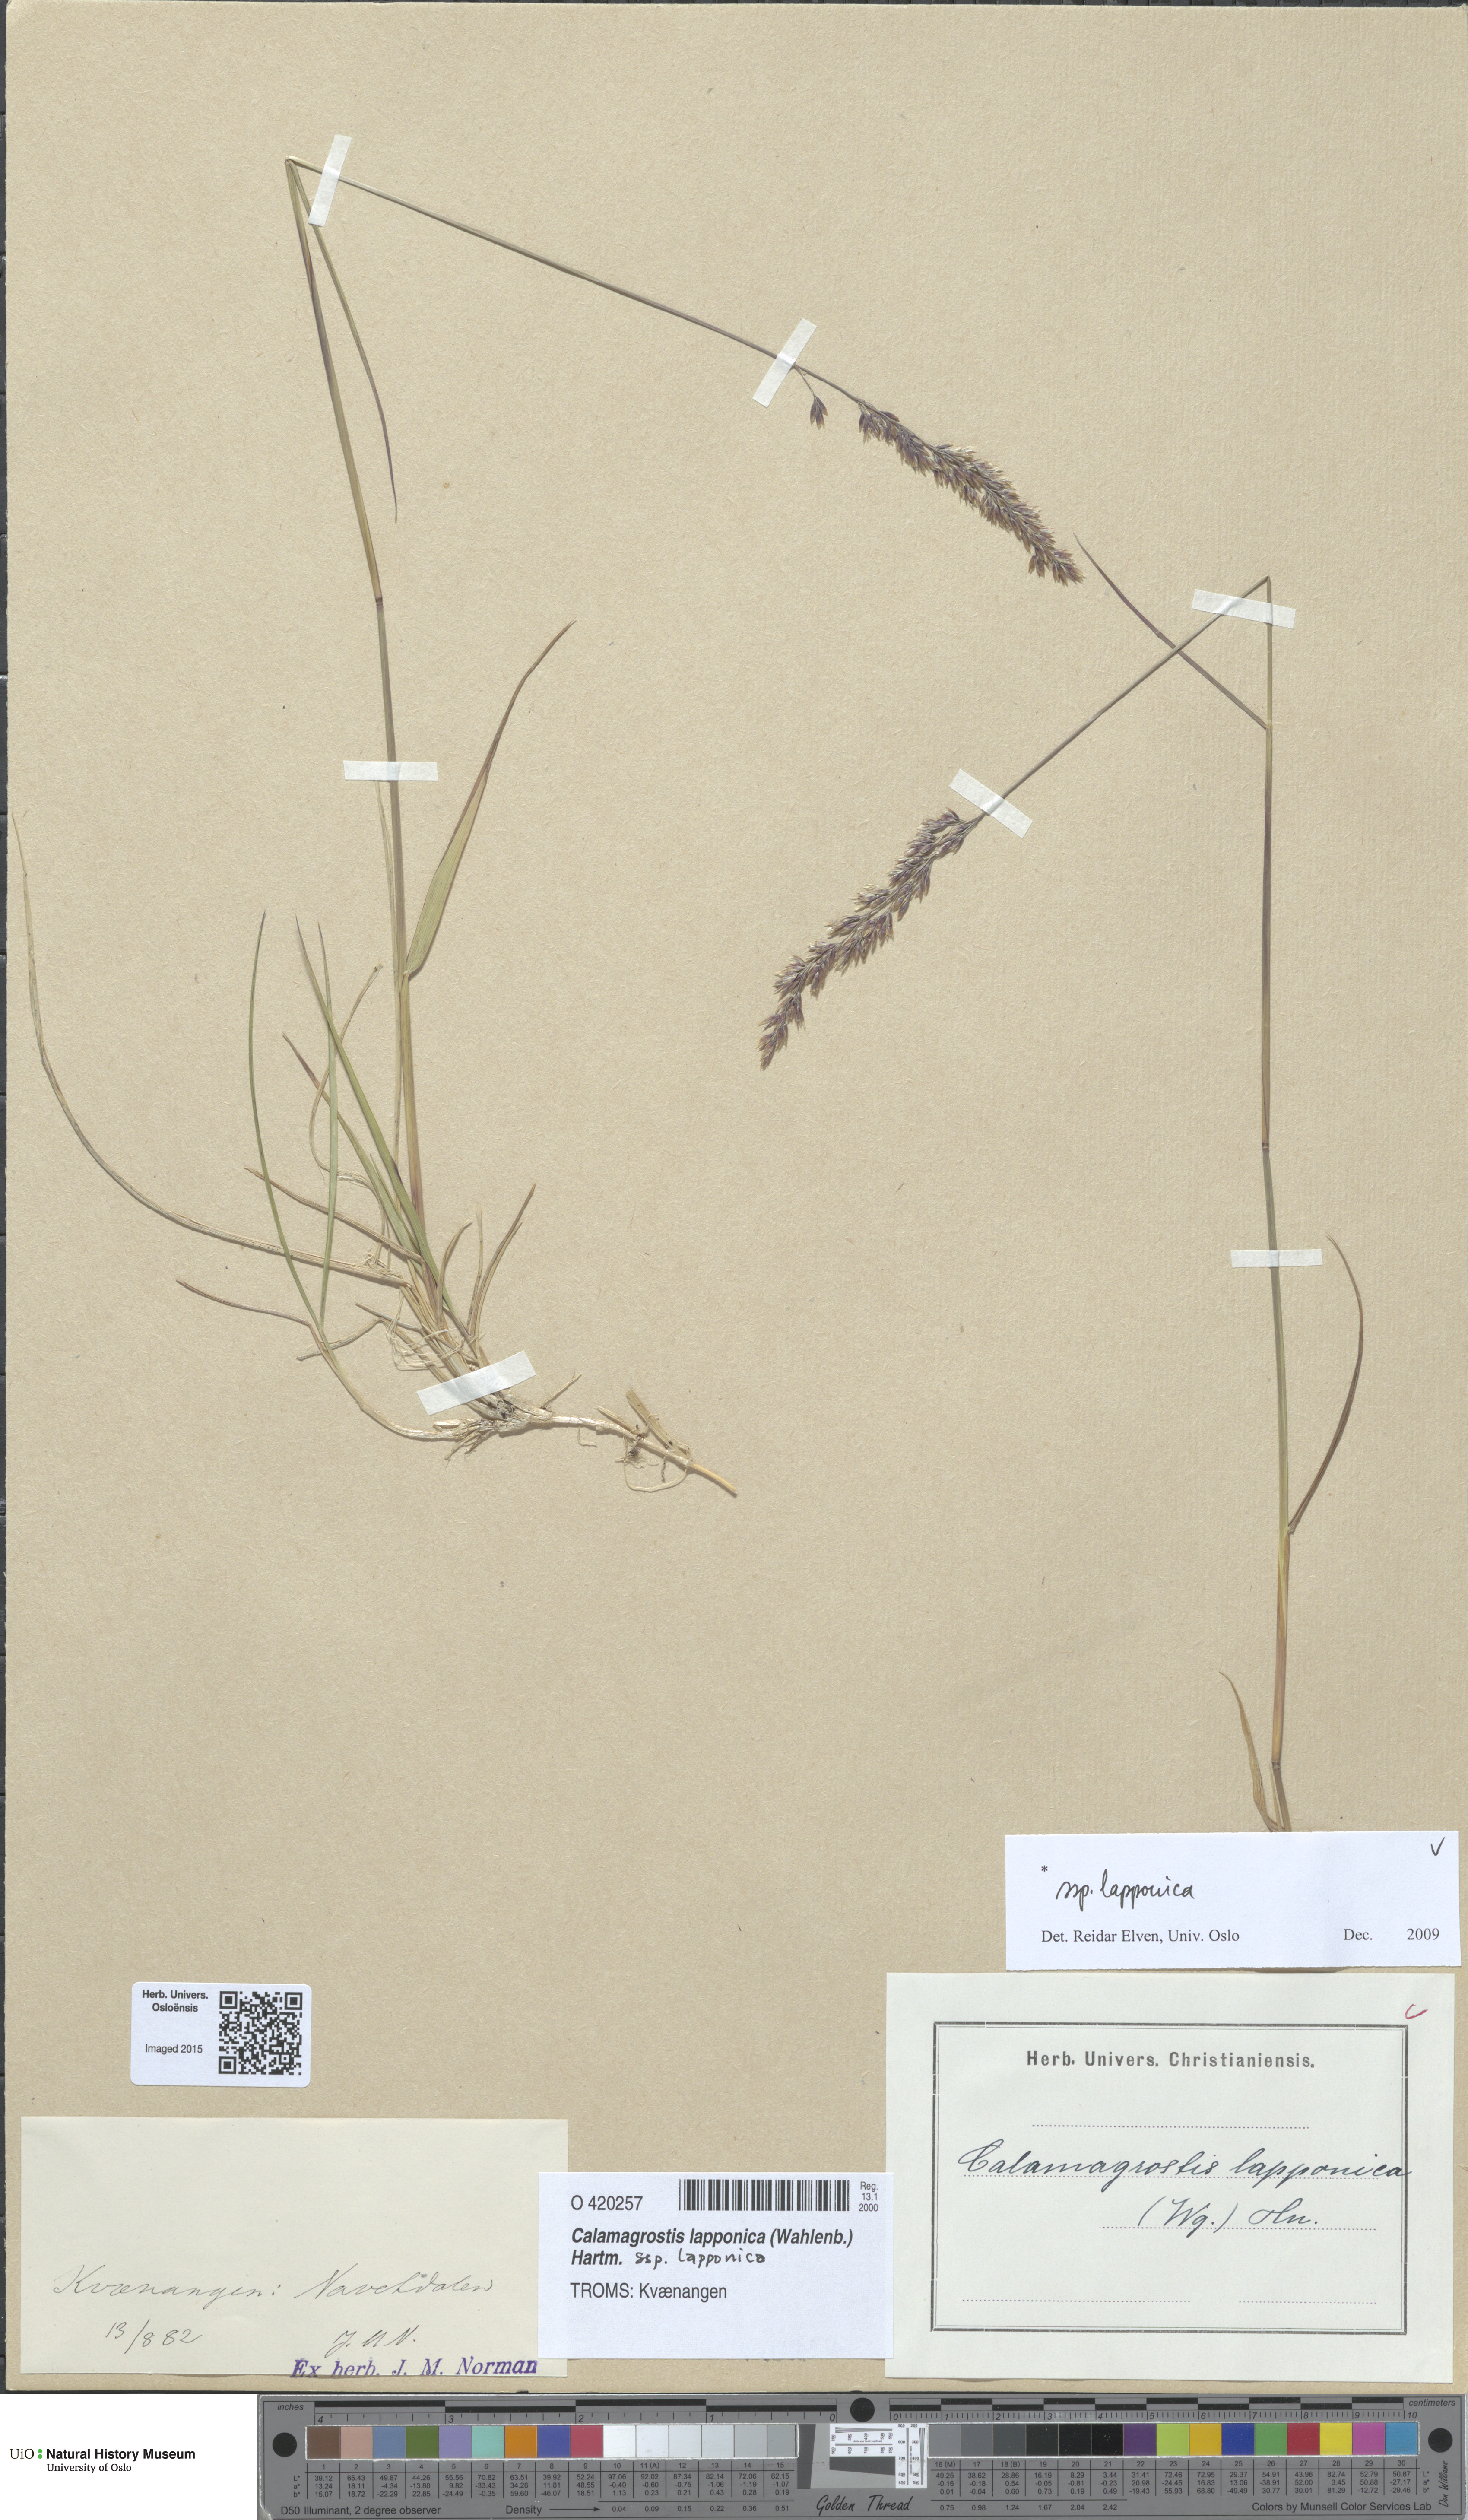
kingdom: Plantae
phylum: Tracheophyta
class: Liliopsida
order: Poales
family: Poaceae
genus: Calamagrostis
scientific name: Calamagrostis lapponica
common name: Lapland reedgrass
